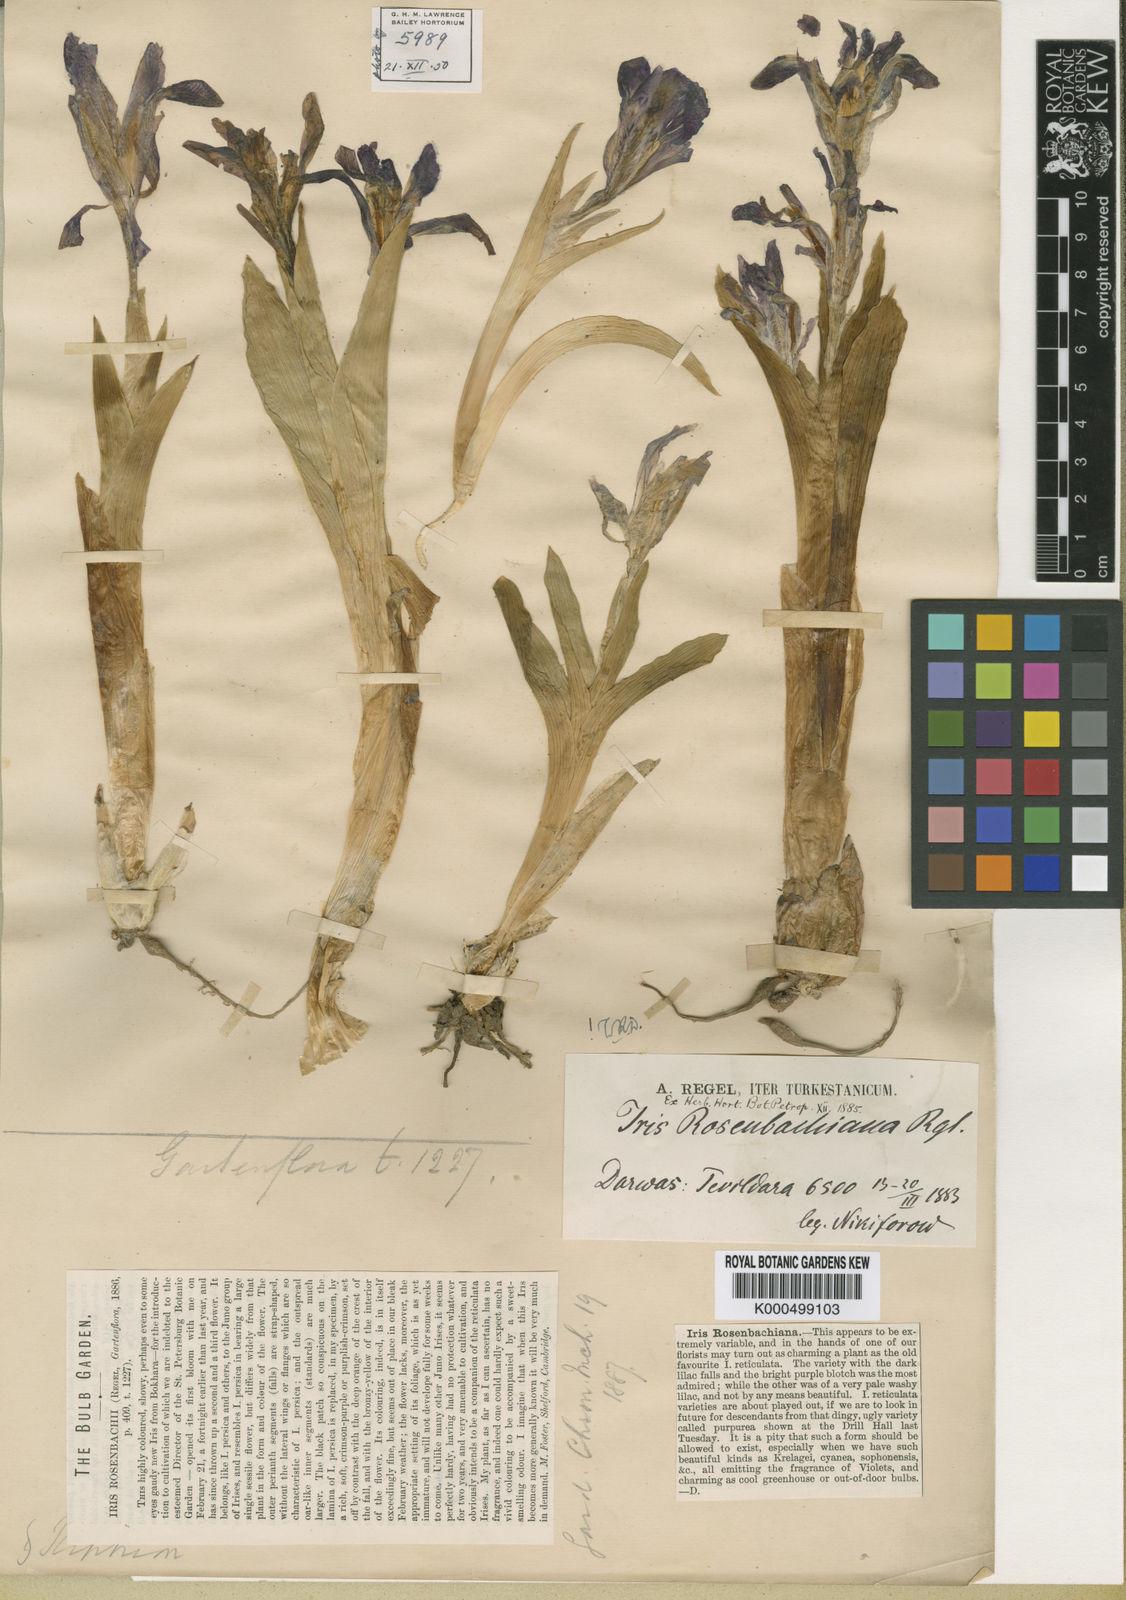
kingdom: Plantae
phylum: Tracheophyta
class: Liliopsida
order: Asparagales
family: Iridaceae
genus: Iris
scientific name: Iris rosenbachiana
